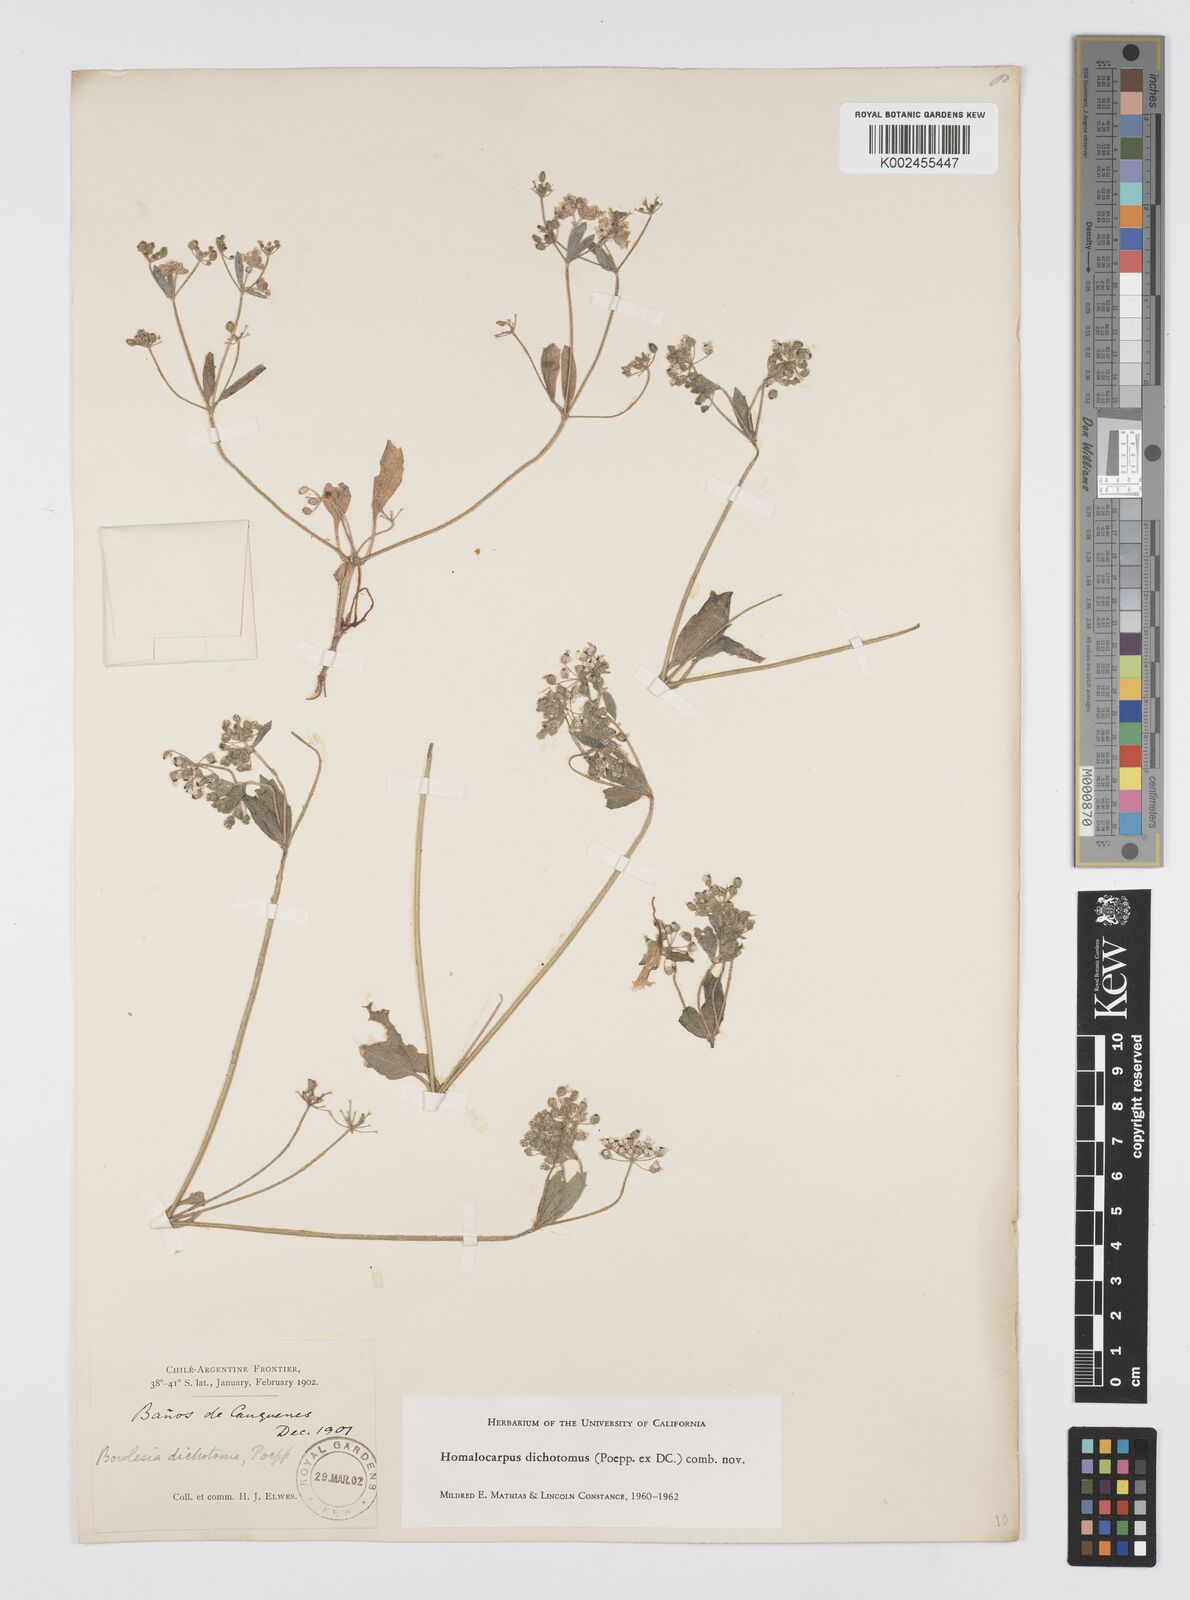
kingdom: Plantae
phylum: Tracheophyta
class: Magnoliopsida
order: Apiales
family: Apiaceae
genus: Homalocarpus
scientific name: Homalocarpus dichotomus
